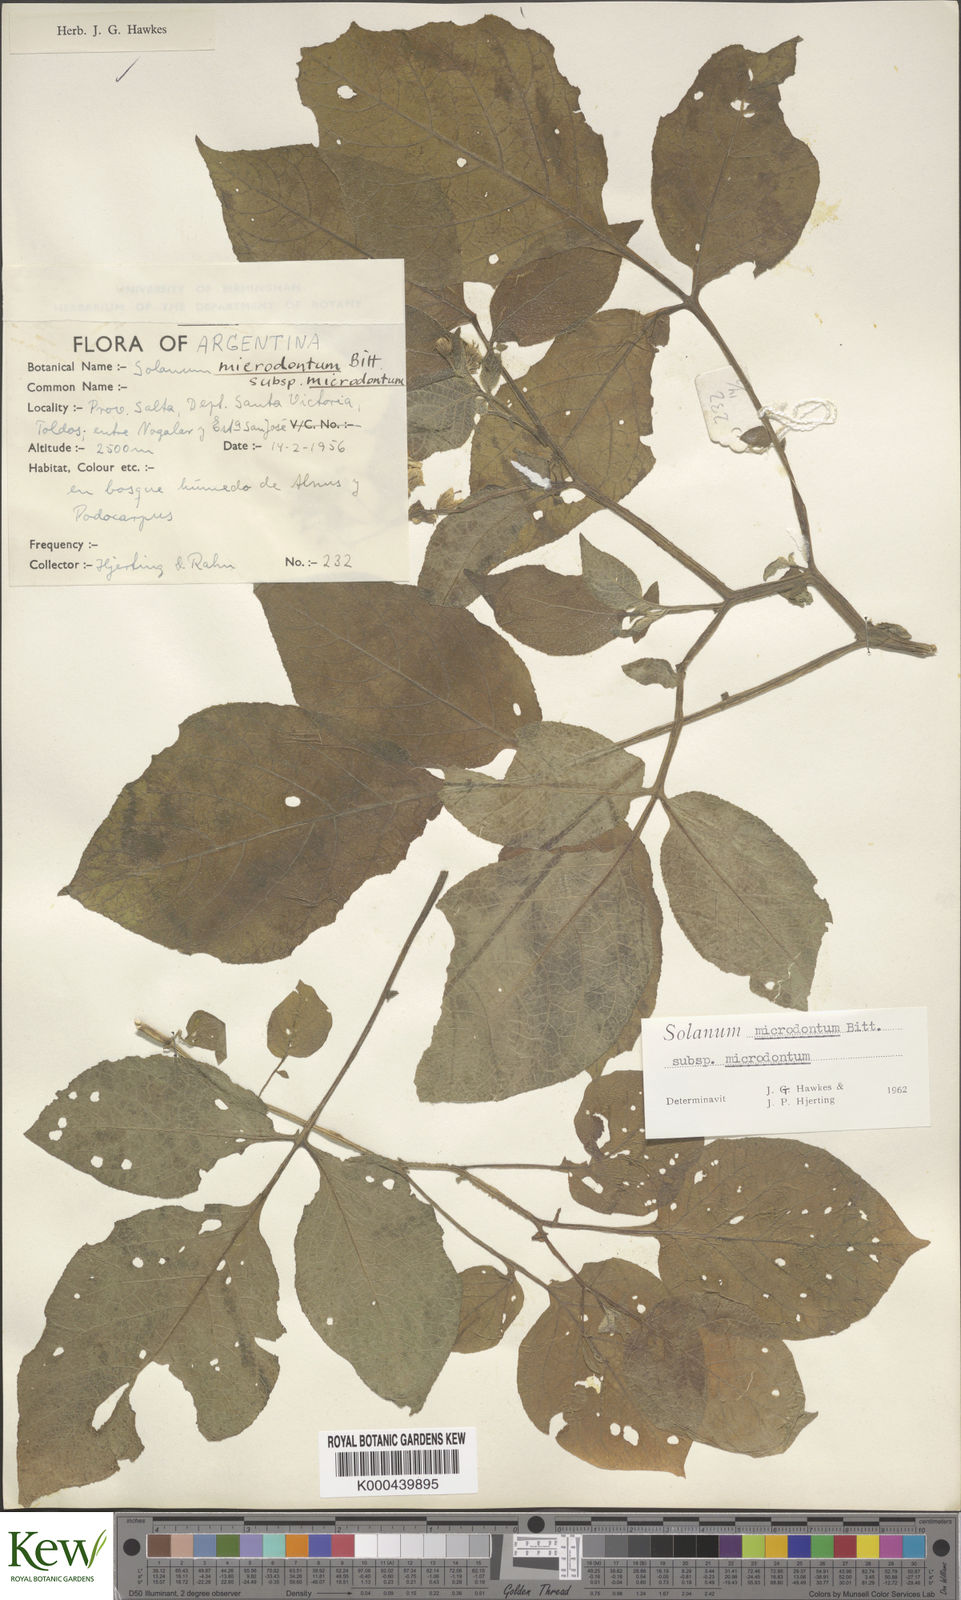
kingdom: Plantae
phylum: Tracheophyta
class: Magnoliopsida
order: Solanales
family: Solanaceae
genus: Solanum
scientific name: Solanum microdontum
